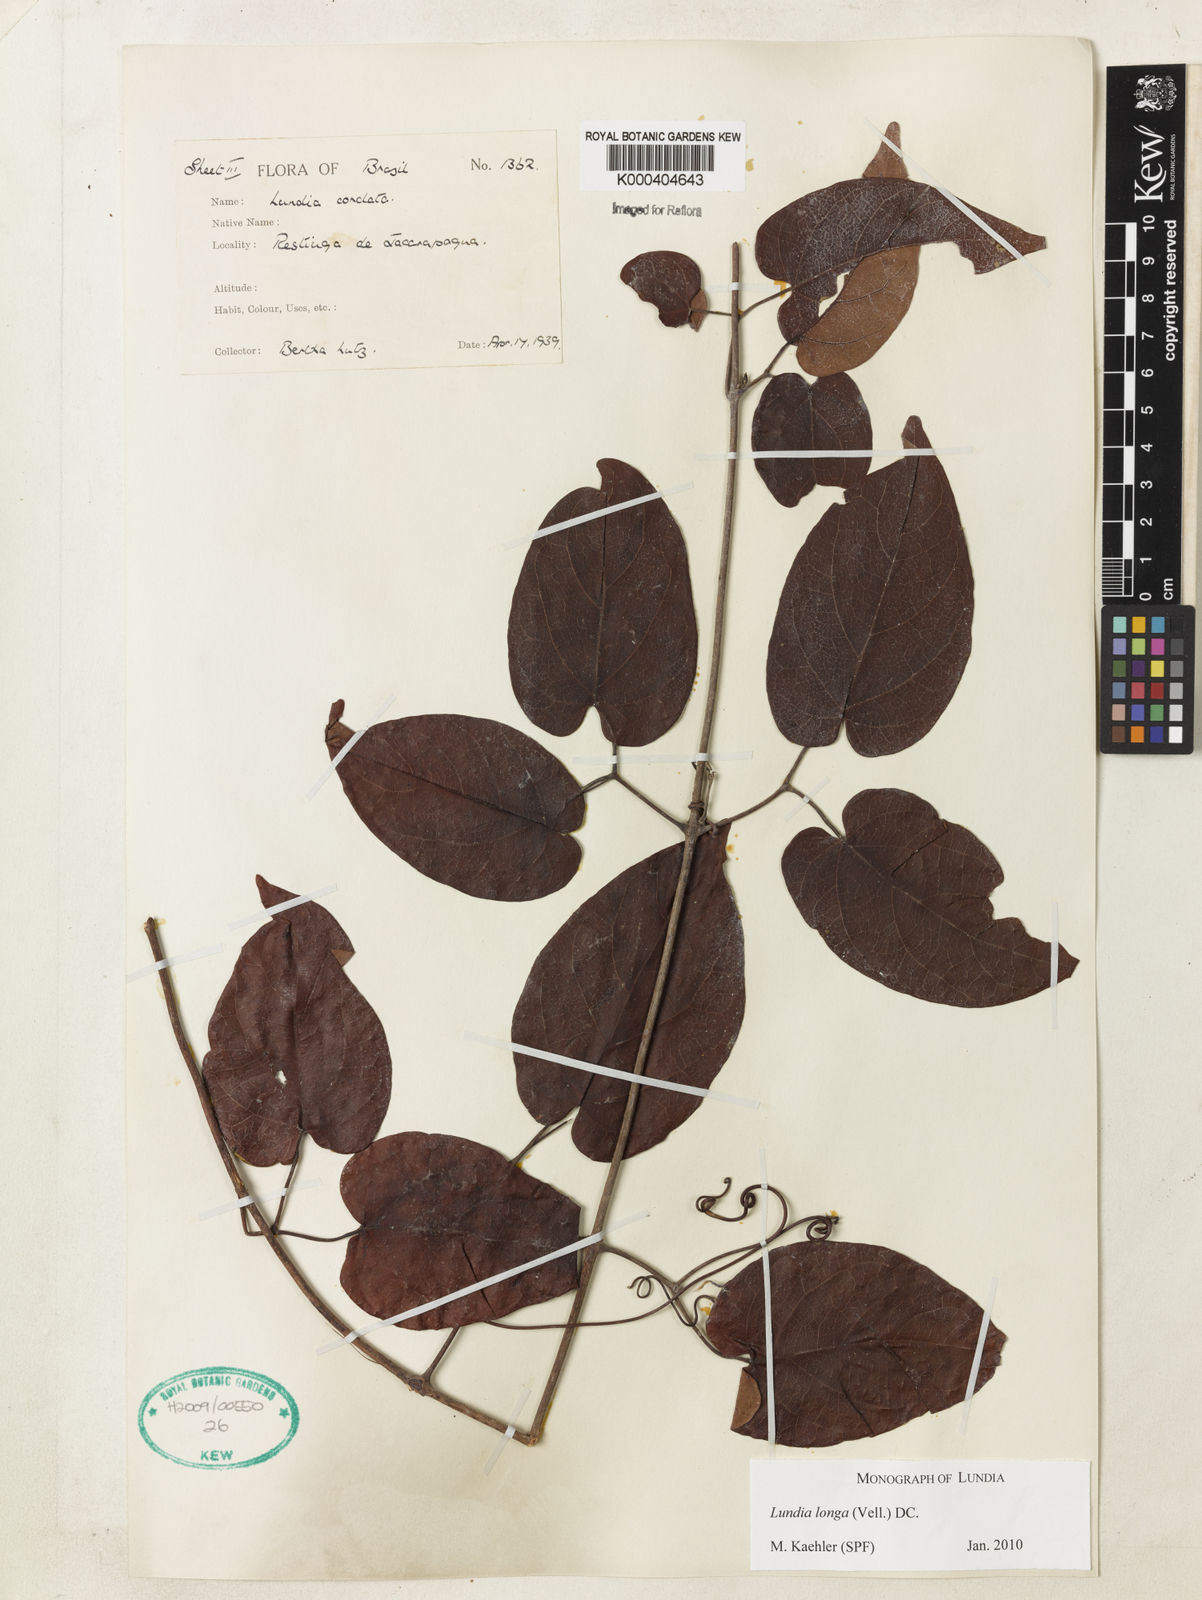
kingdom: Plantae
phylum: Tracheophyta
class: Magnoliopsida
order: Lamiales
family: Bignoniaceae
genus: Lundia
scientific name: Lundia longa
